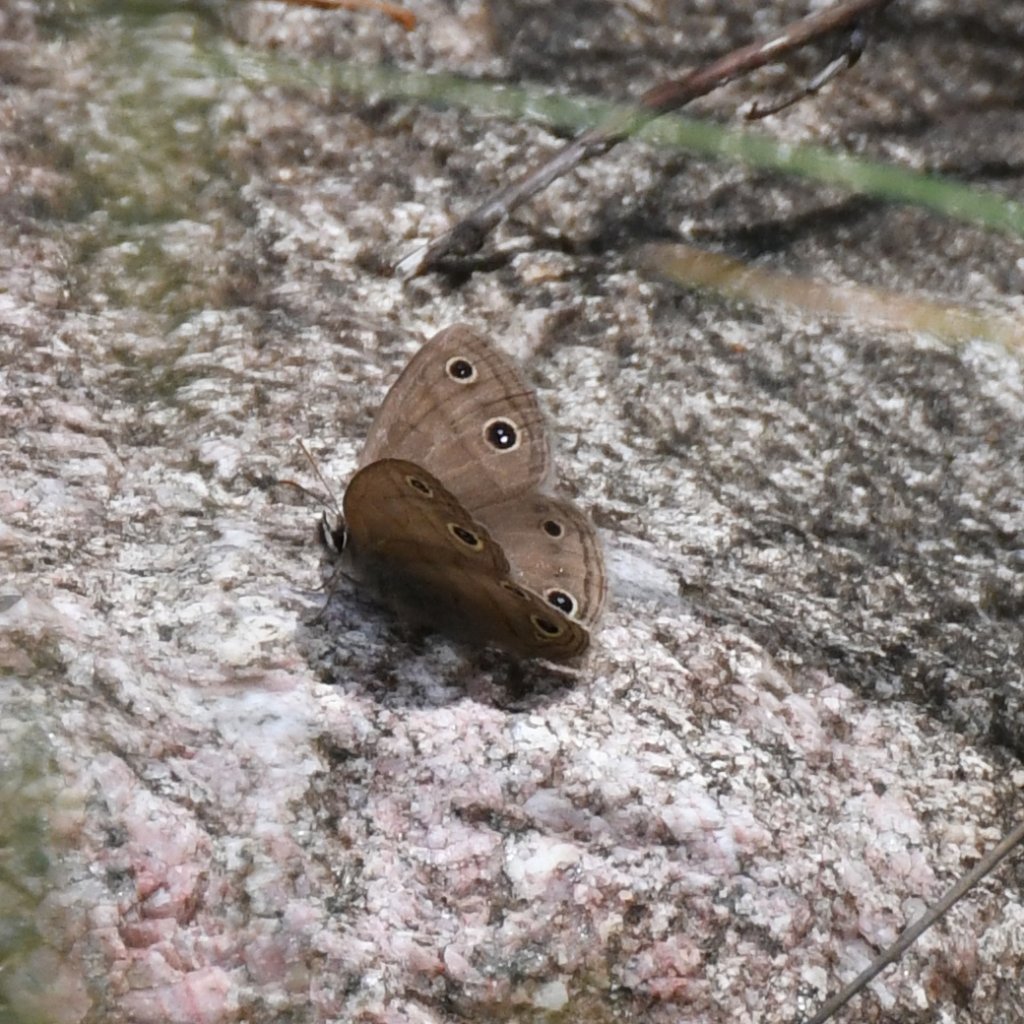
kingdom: Animalia
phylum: Arthropoda
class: Insecta
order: Lepidoptera
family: Nymphalidae
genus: Euptychia
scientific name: Euptychia cymela
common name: Little Wood Satyr
